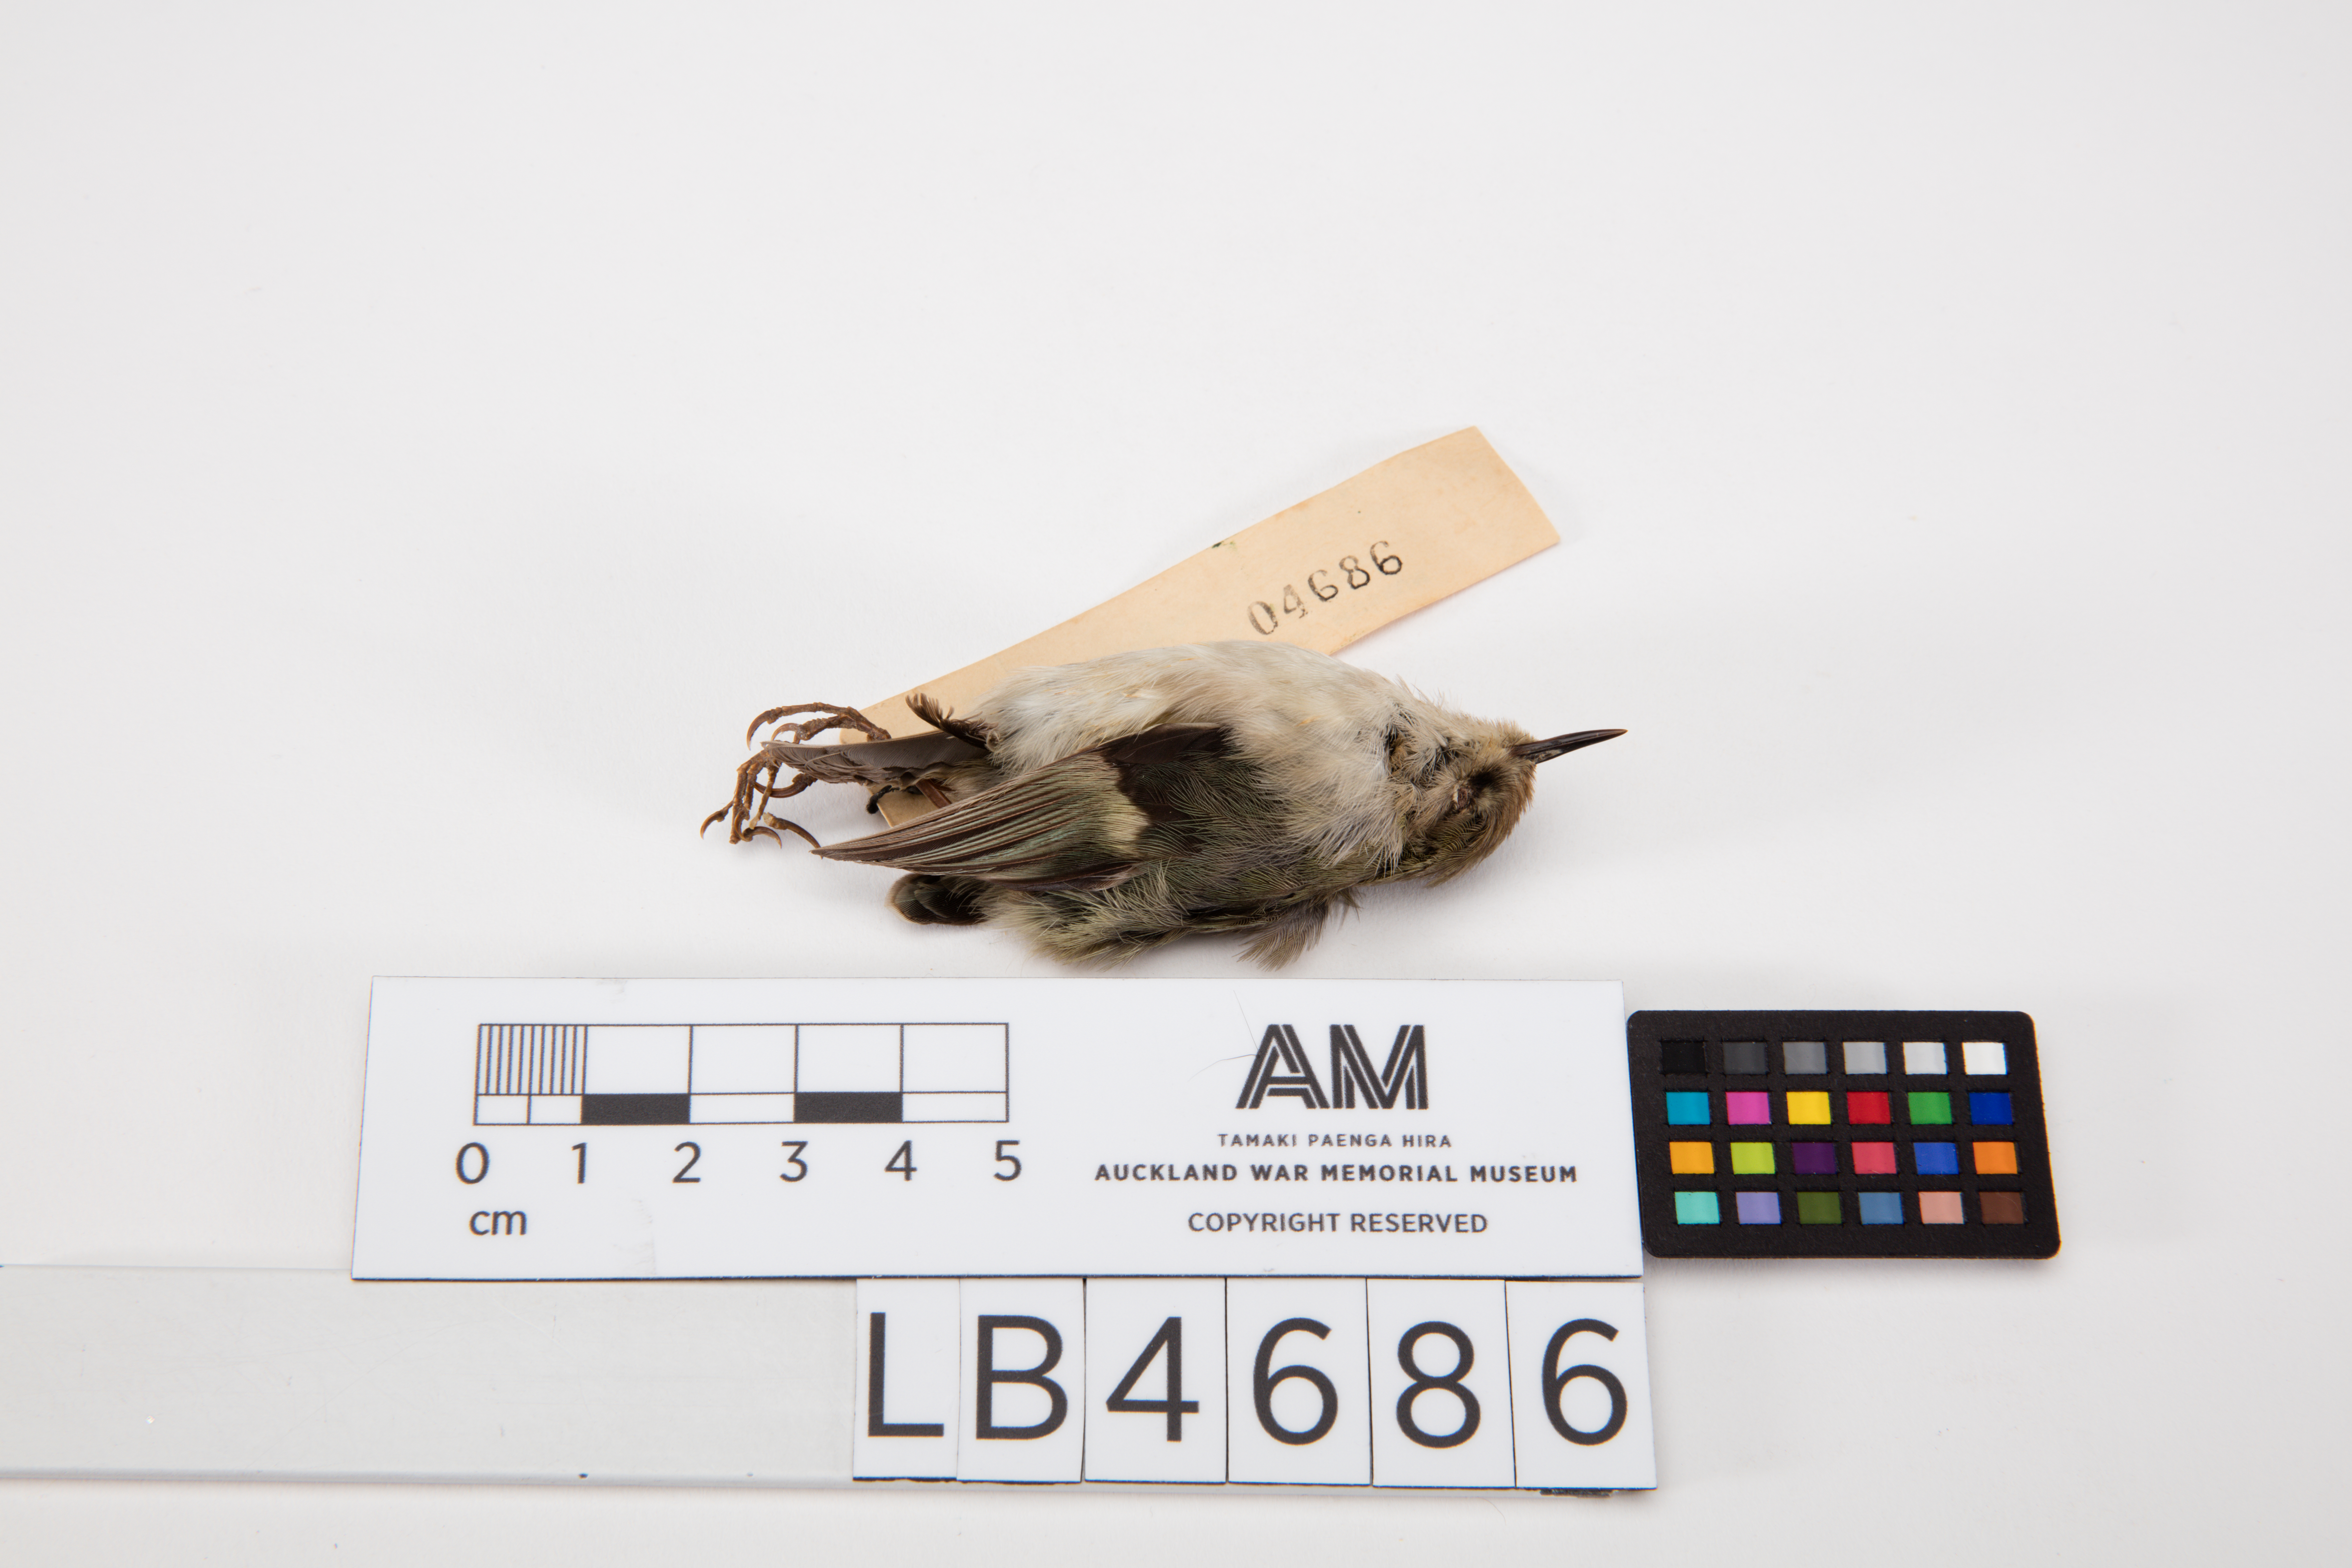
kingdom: Animalia
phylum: Chordata
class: Aves
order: Passeriformes
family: Acanthisittidae
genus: Acanthisitta
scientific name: Acanthisitta chloris
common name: Rifleman
